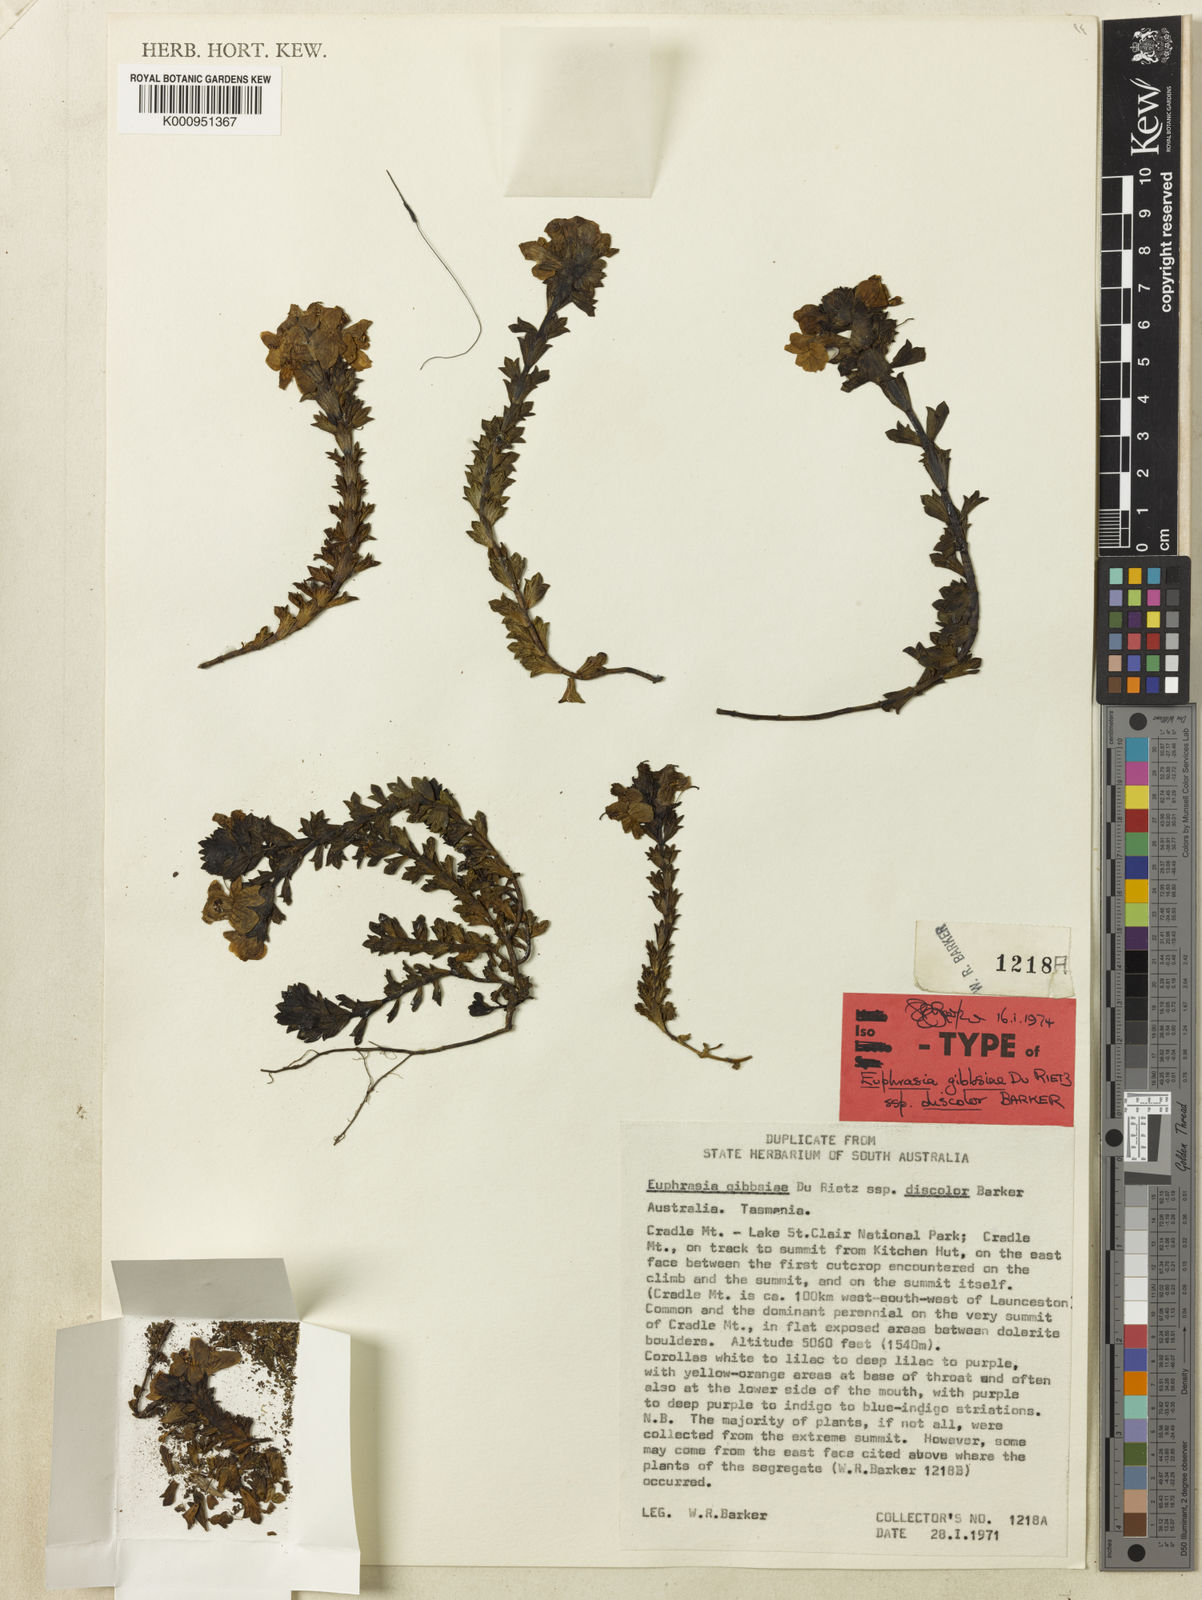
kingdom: Plantae
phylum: Tracheophyta
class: Magnoliopsida
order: Lamiales
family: Orobanchaceae
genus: Euphrasia
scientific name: Euphrasia gibbsiae
